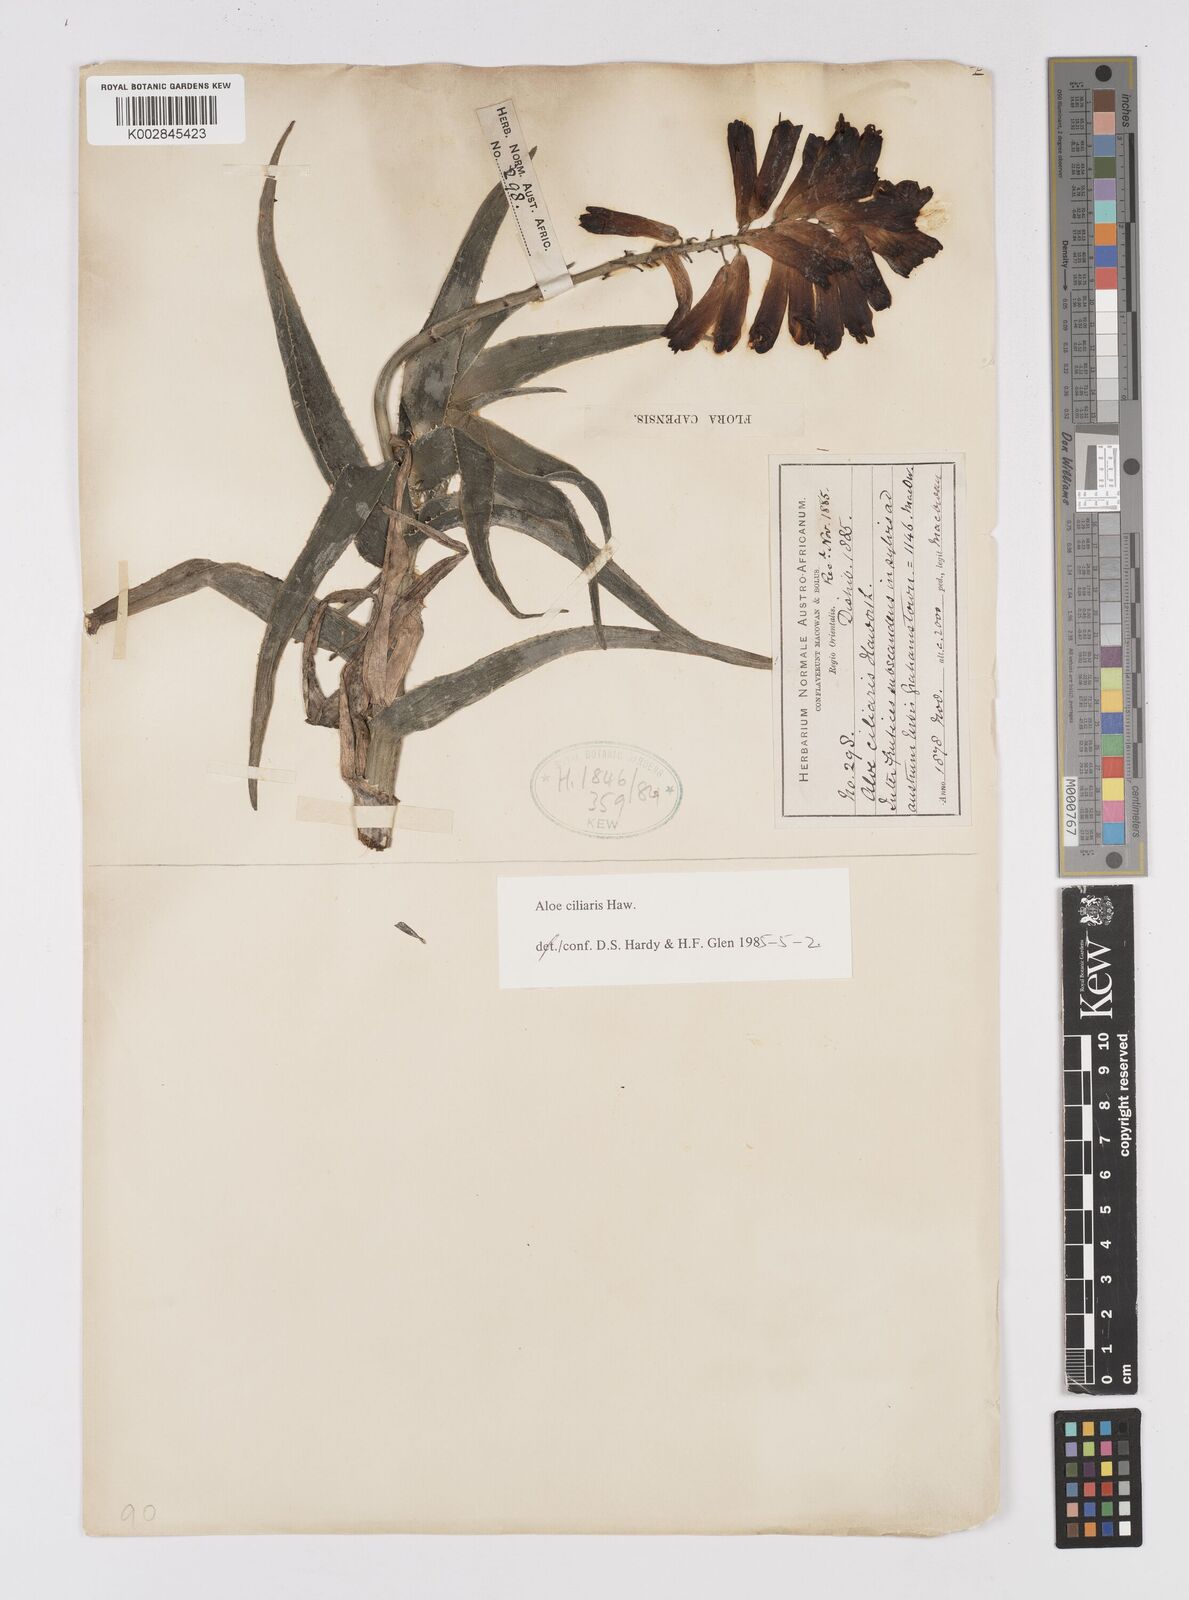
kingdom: Plantae
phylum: Tracheophyta
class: Liliopsida
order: Asparagales
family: Asphodelaceae
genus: Aloiampelos
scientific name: Aloiampelos ciliaris
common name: Climbing aloe
